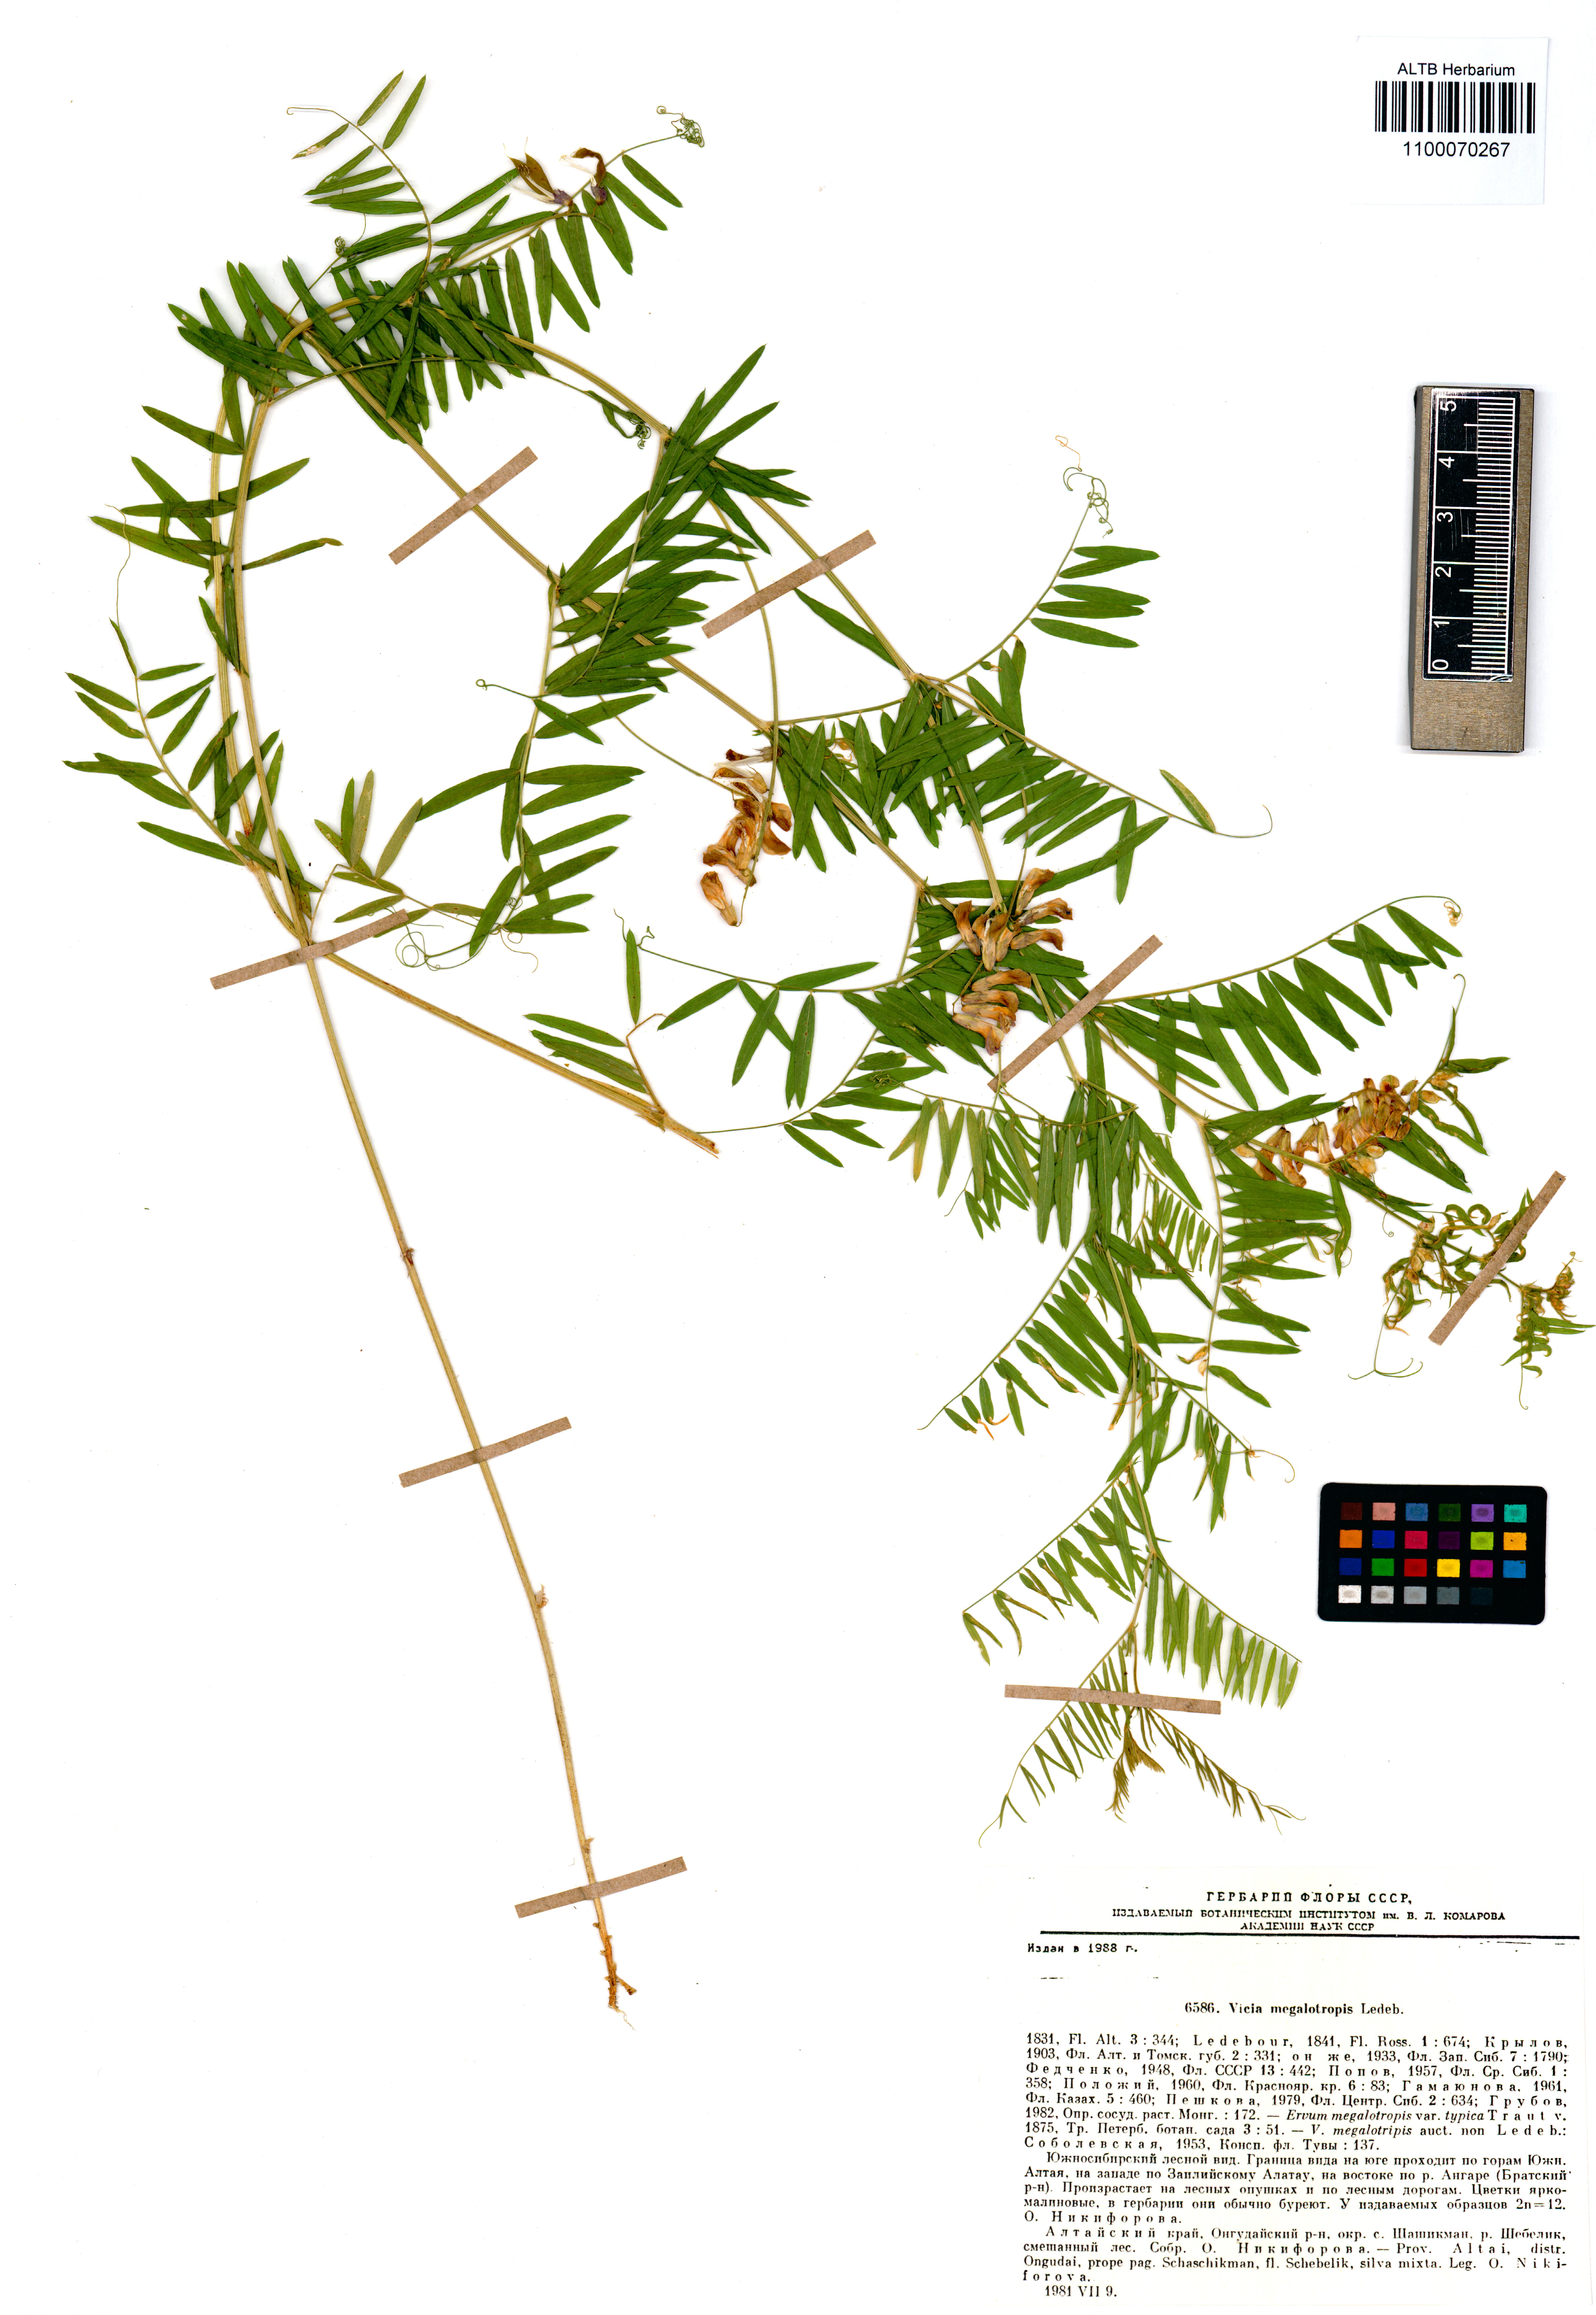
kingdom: Plantae
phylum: Tracheophyta
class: Magnoliopsida
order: Fabales
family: Fabaceae
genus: Vicia
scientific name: Vicia megalotropis
